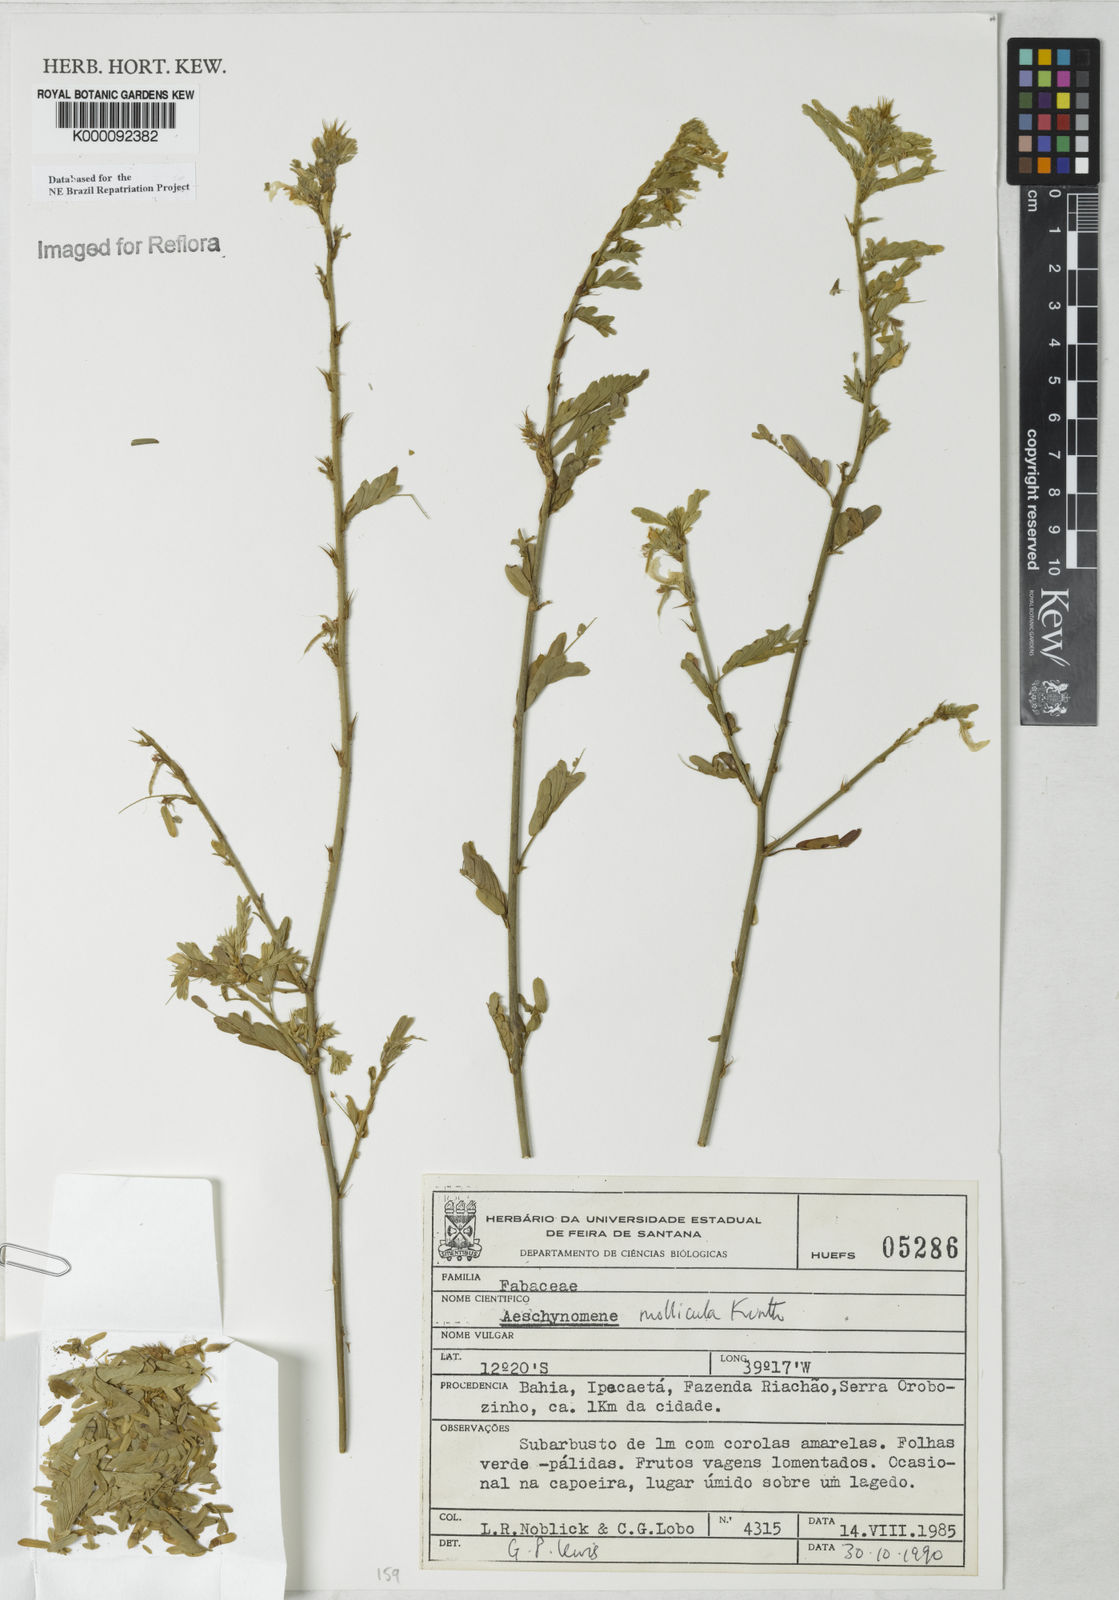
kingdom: Plantae
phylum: Tracheophyta
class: Magnoliopsida
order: Fabales
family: Fabaceae
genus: Ctenodon
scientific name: Ctenodon molliculus
